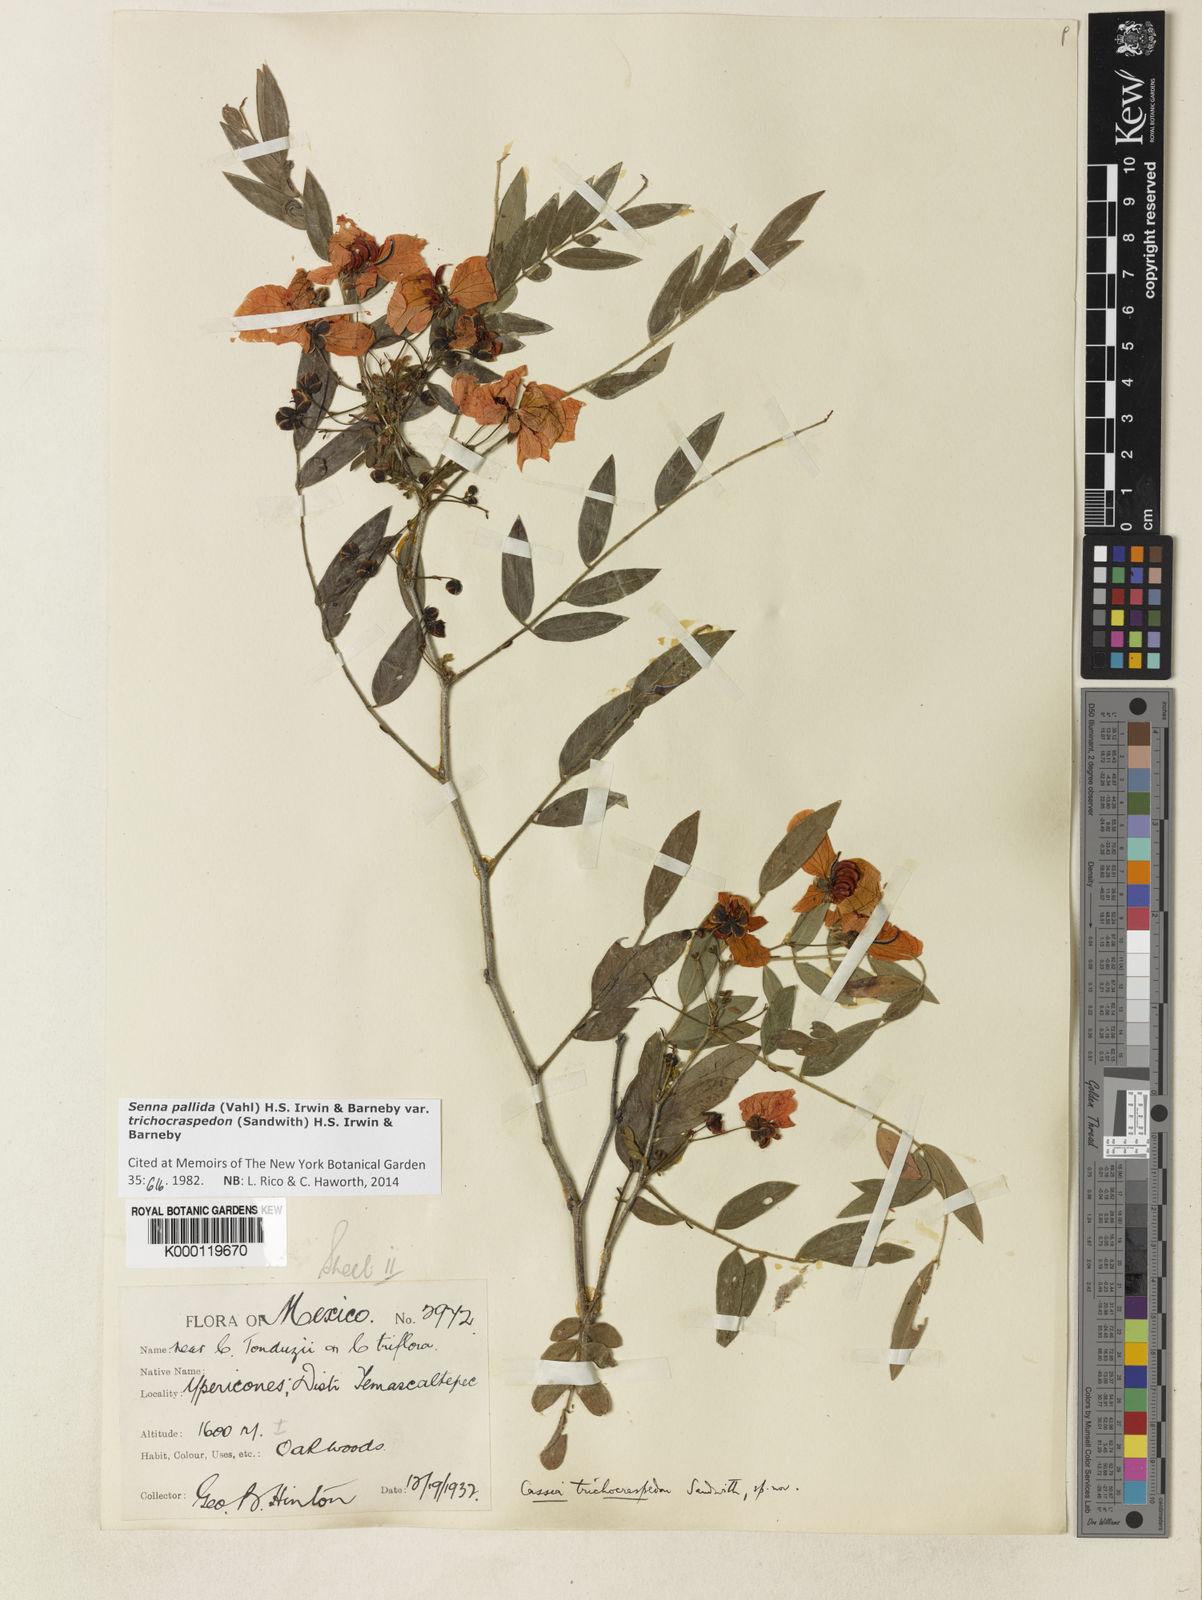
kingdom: Plantae
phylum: Tracheophyta
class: Magnoliopsida
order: Fabales
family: Fabaceae
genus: Senna
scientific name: Senna pallida
